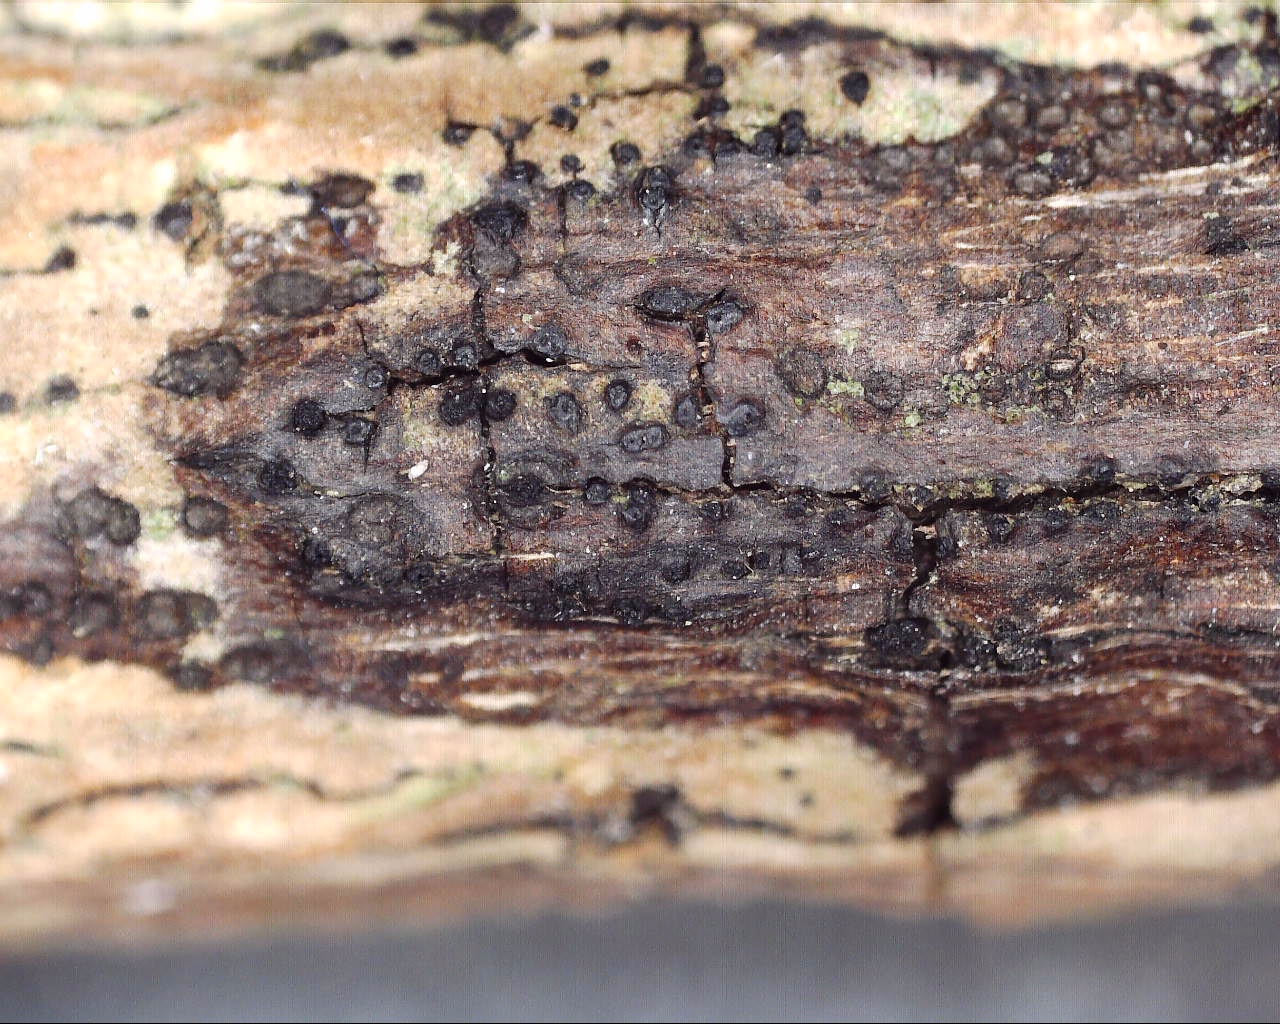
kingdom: Fungi
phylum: Ascomycota
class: Sordariomycetes
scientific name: Sordariomycetes
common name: kernesvampklassen
